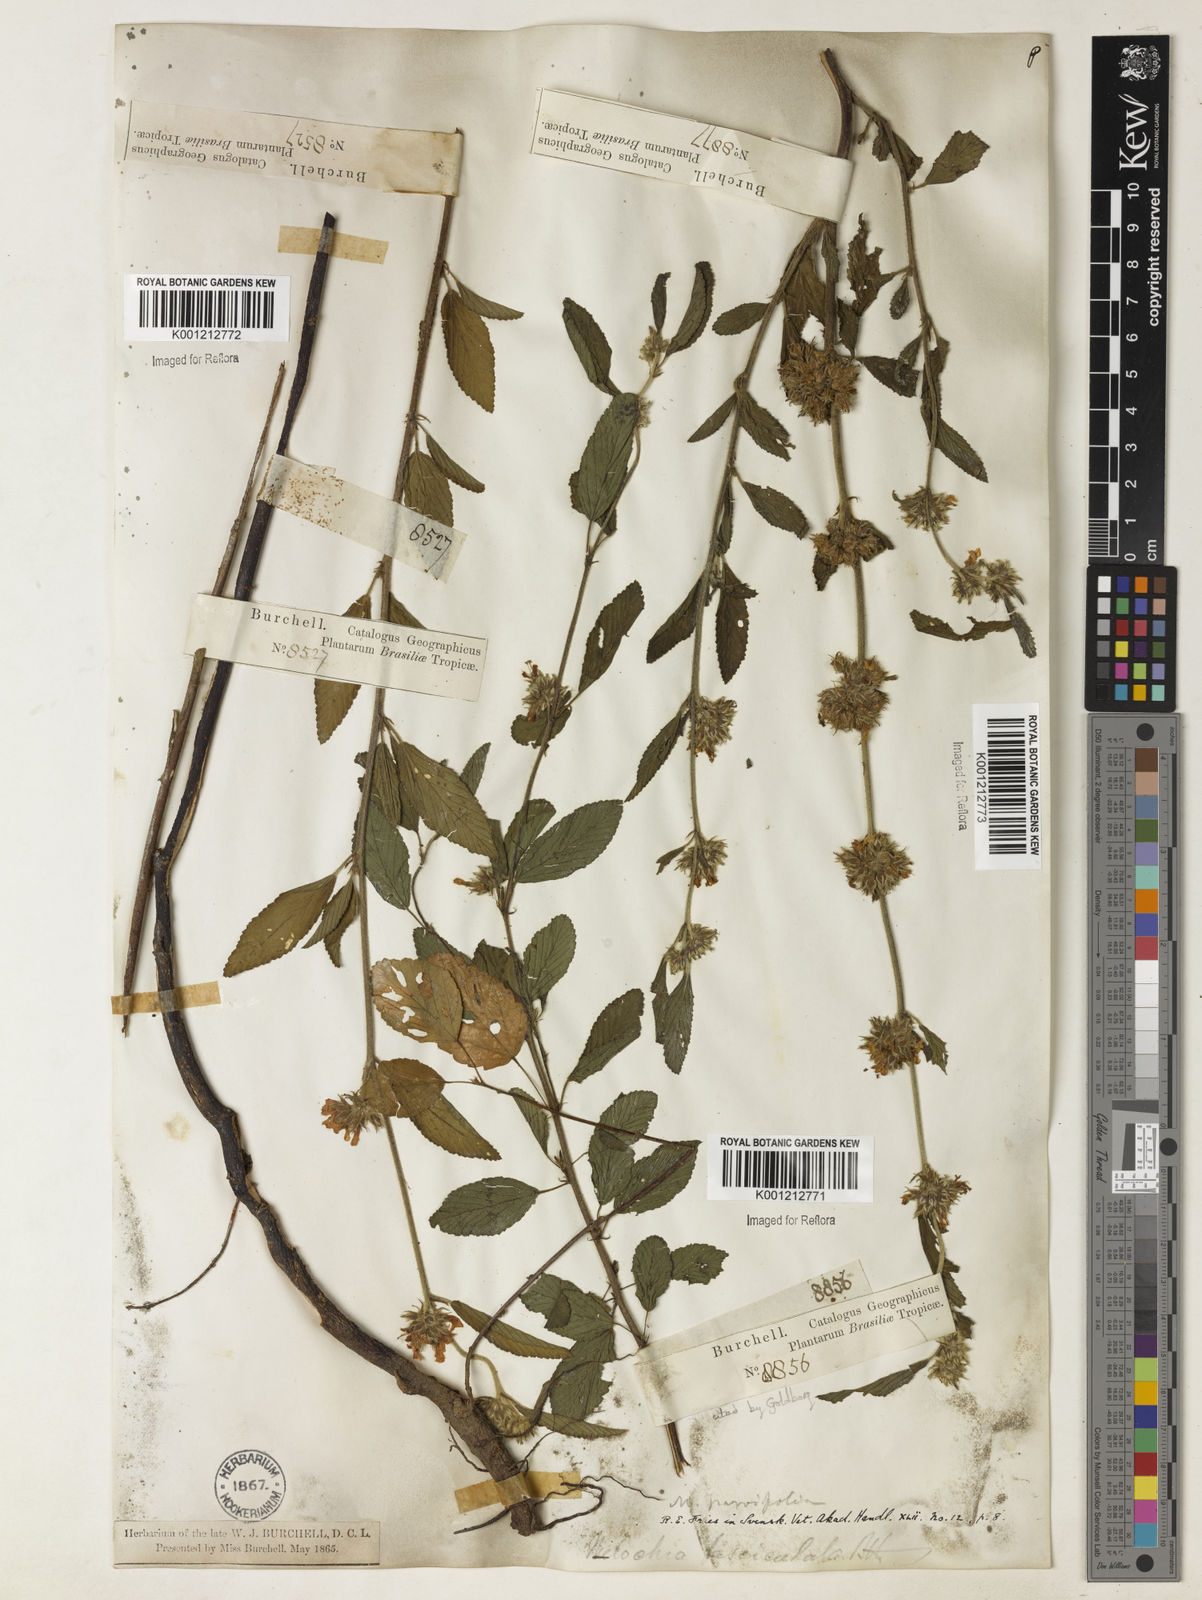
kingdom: Plantae
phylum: Tracheophyta
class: Magnoliopsida
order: Malvales
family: Malvaceae
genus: Melochia
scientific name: Melochia
